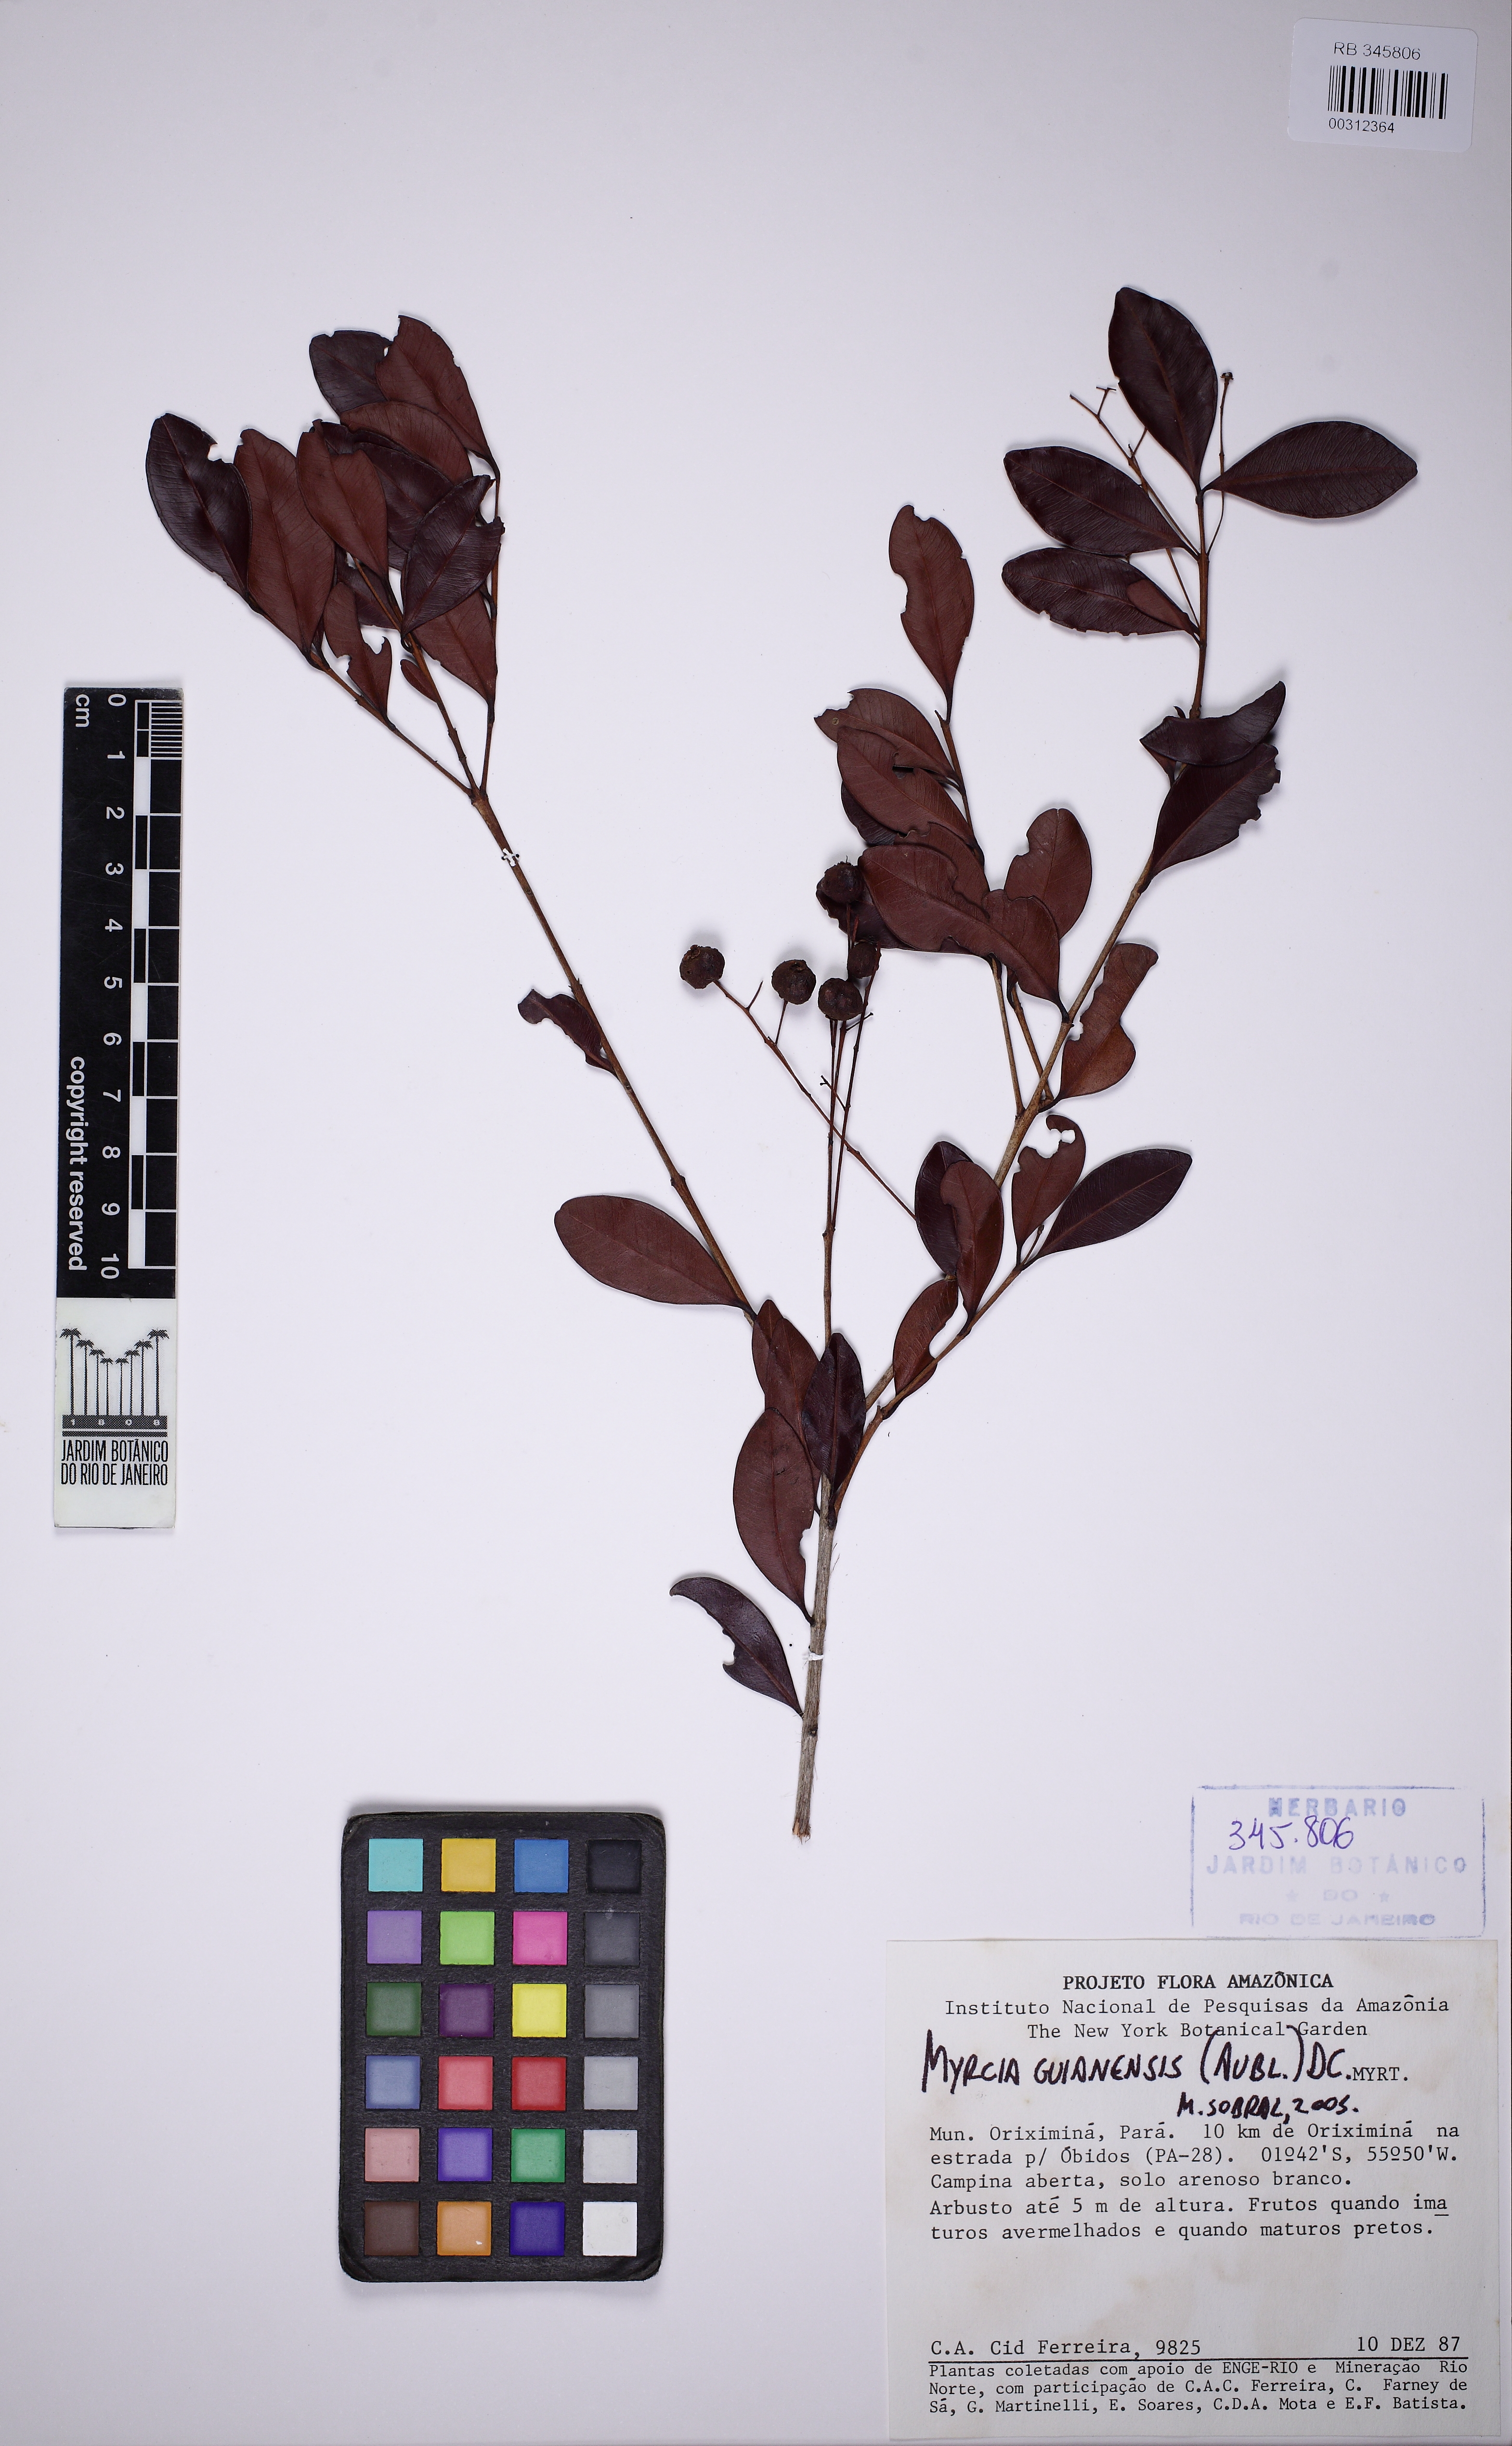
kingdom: Plantae
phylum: Tracheophyta
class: Magnoliopsida
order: Myrtales
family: Myrtaceae
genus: Myrcia
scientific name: Myrcia guianensis
